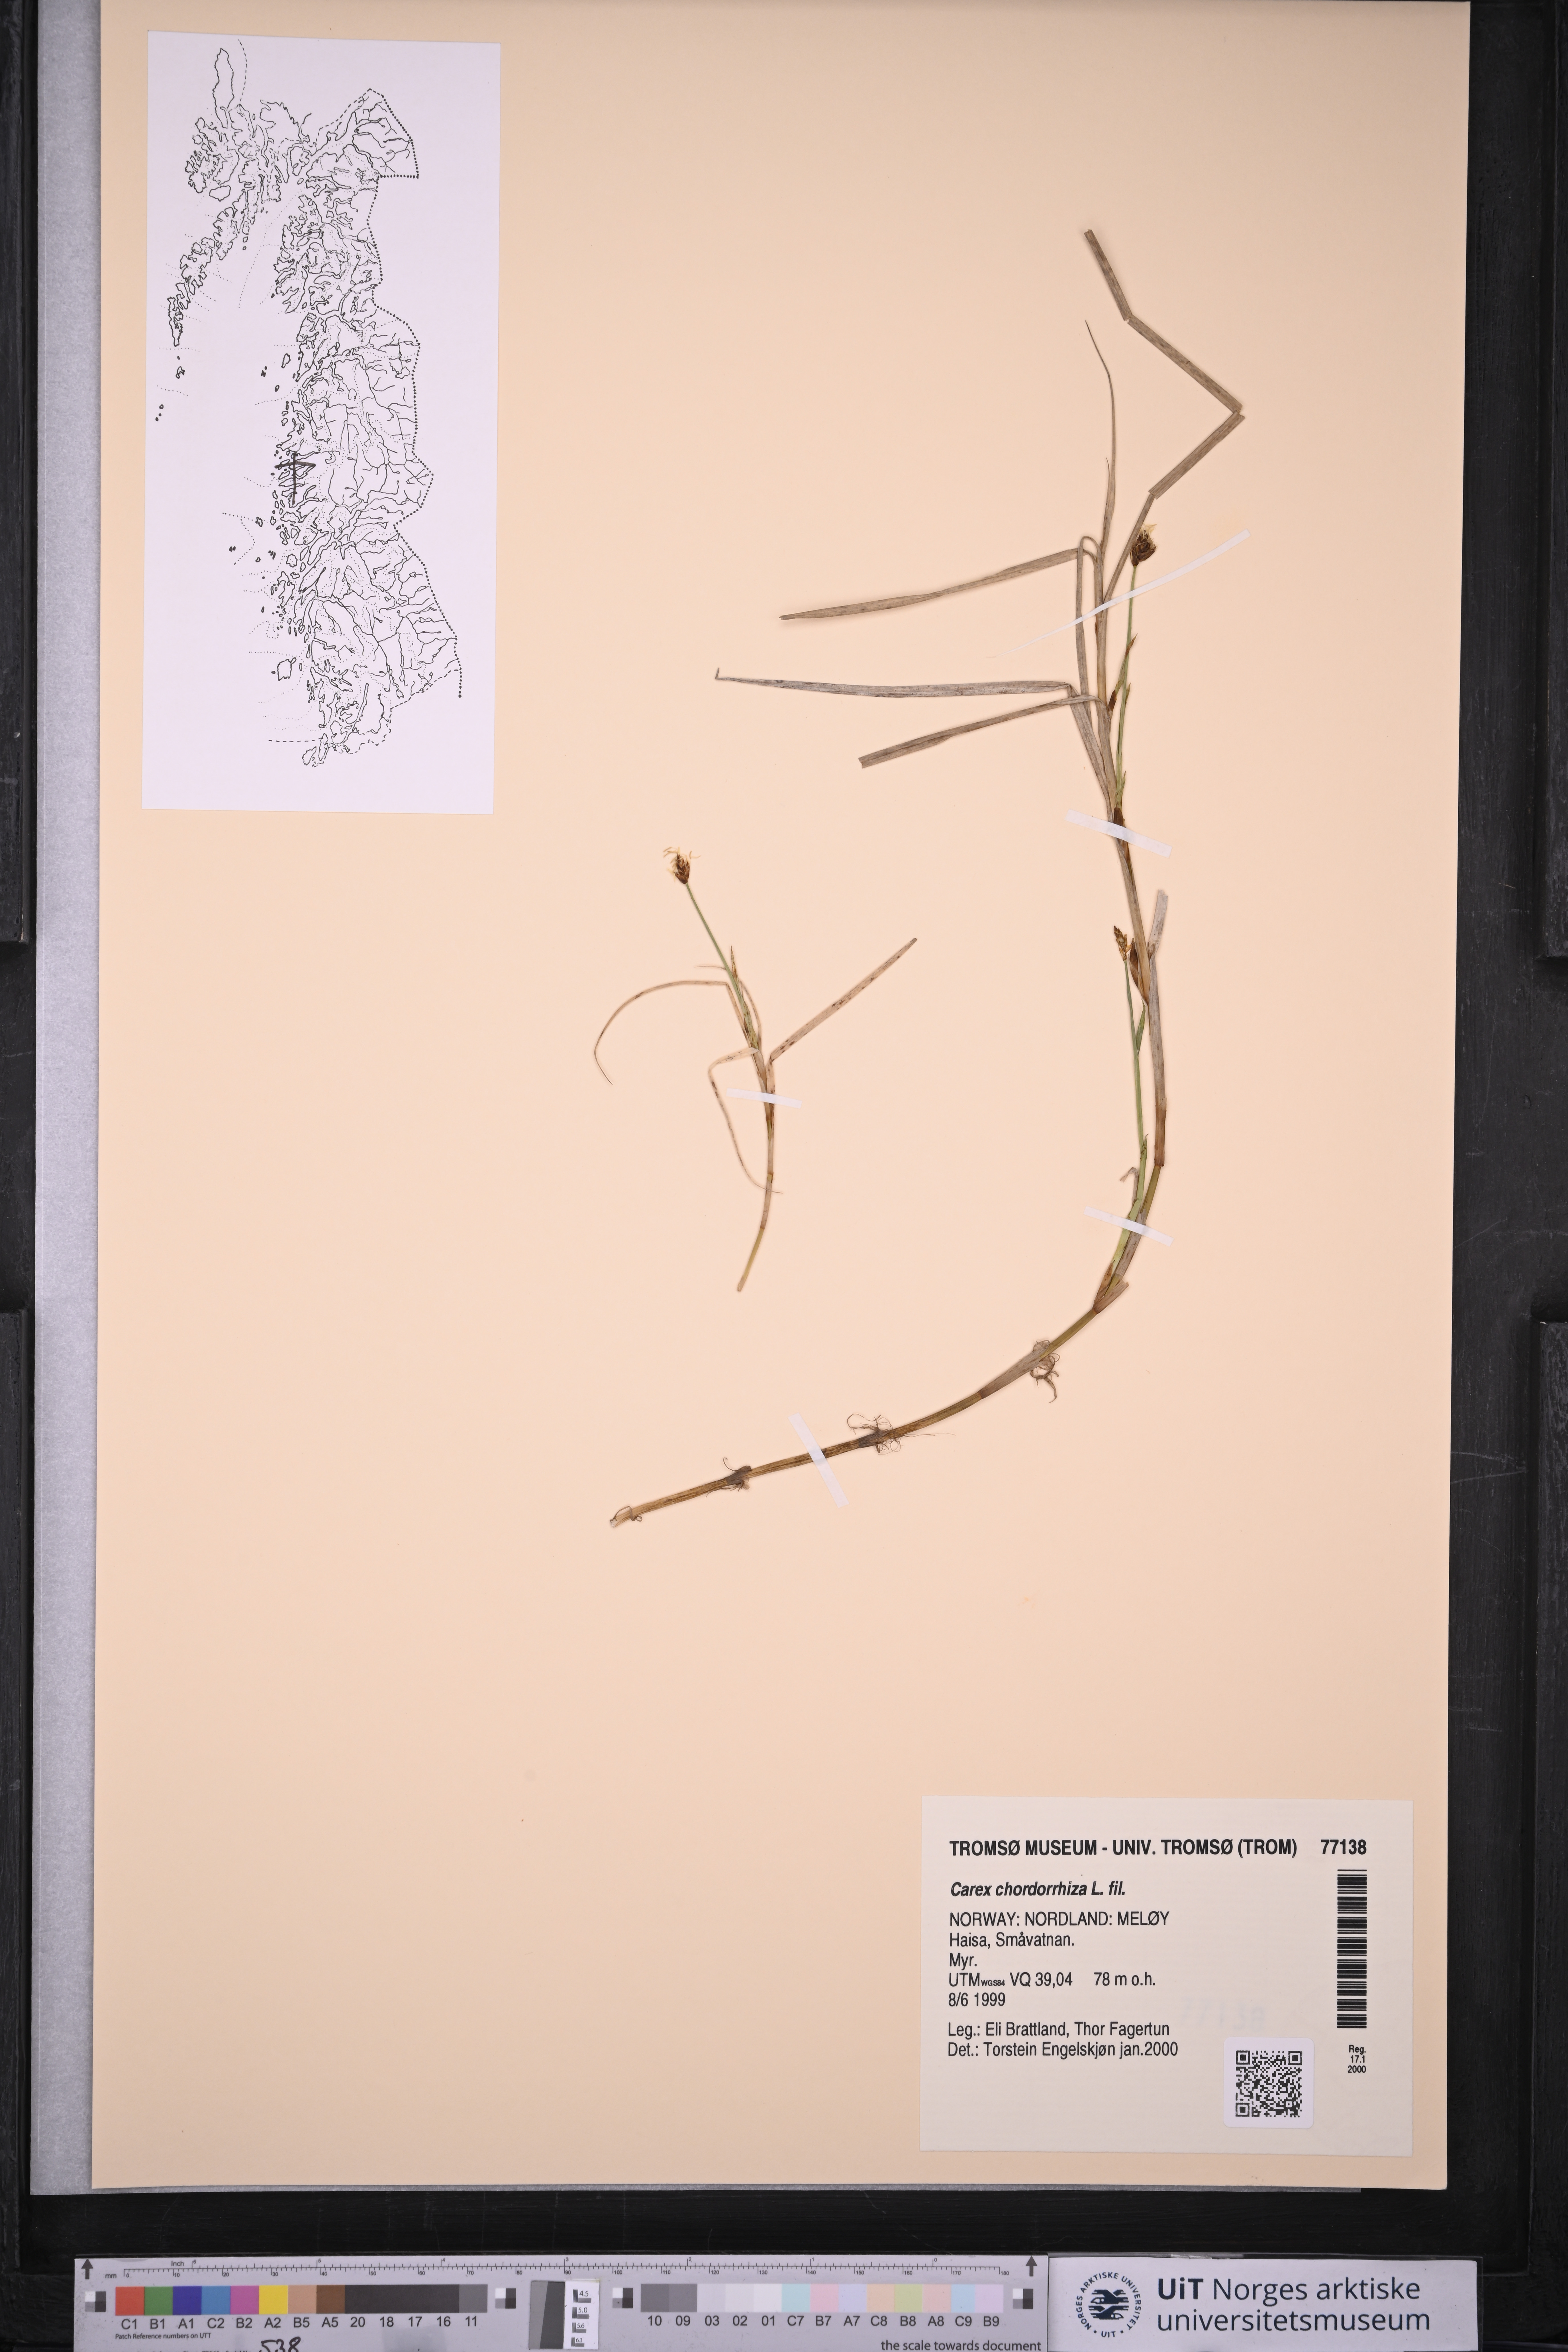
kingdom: Plantae
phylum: Tracheophyta
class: Liliopsida
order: Poales
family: Cyperaceae
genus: Carex
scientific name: Carex chordorrhiza
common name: String sedge
